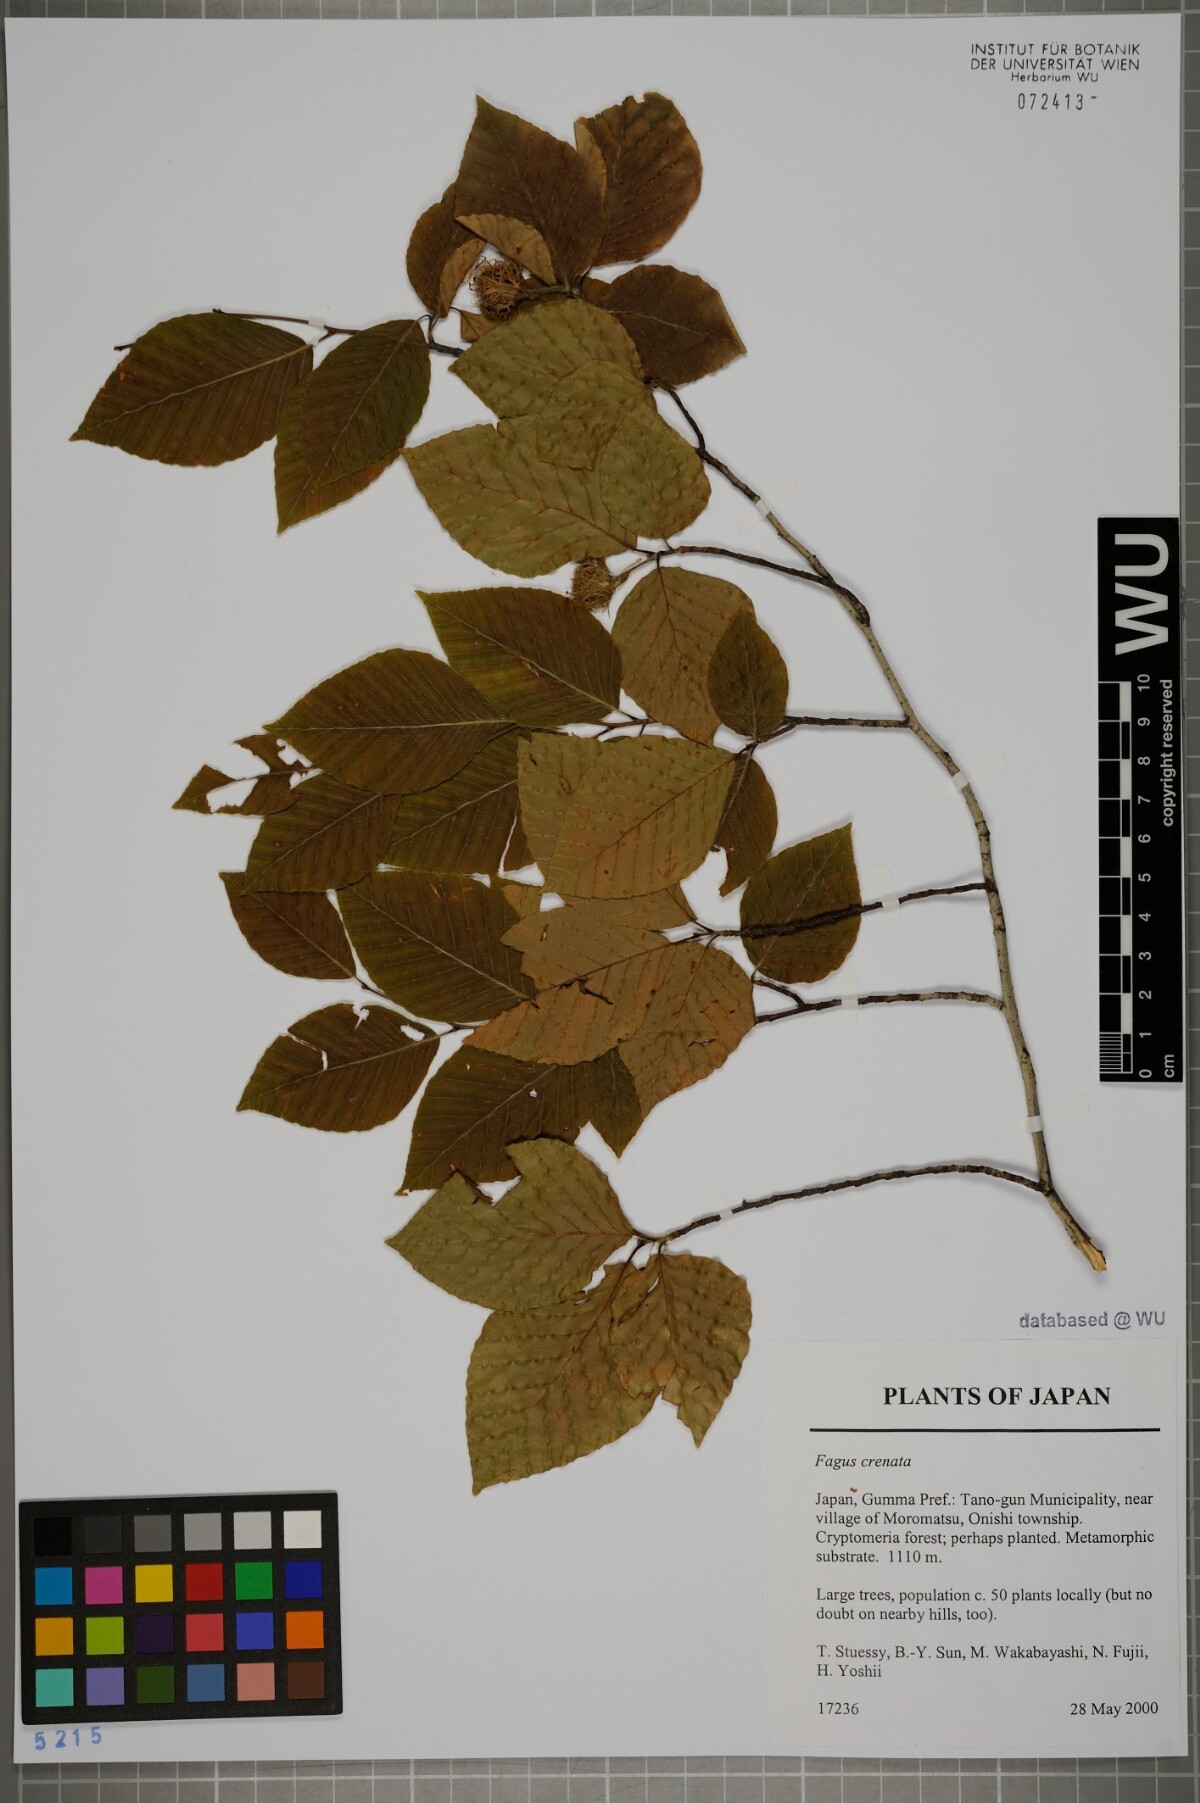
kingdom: Plantae
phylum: Tracheophyta
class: Magnoliopsida
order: Fagales
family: Fagaceae
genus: Fagus
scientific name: Fagus crenata
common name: Japanese beech
